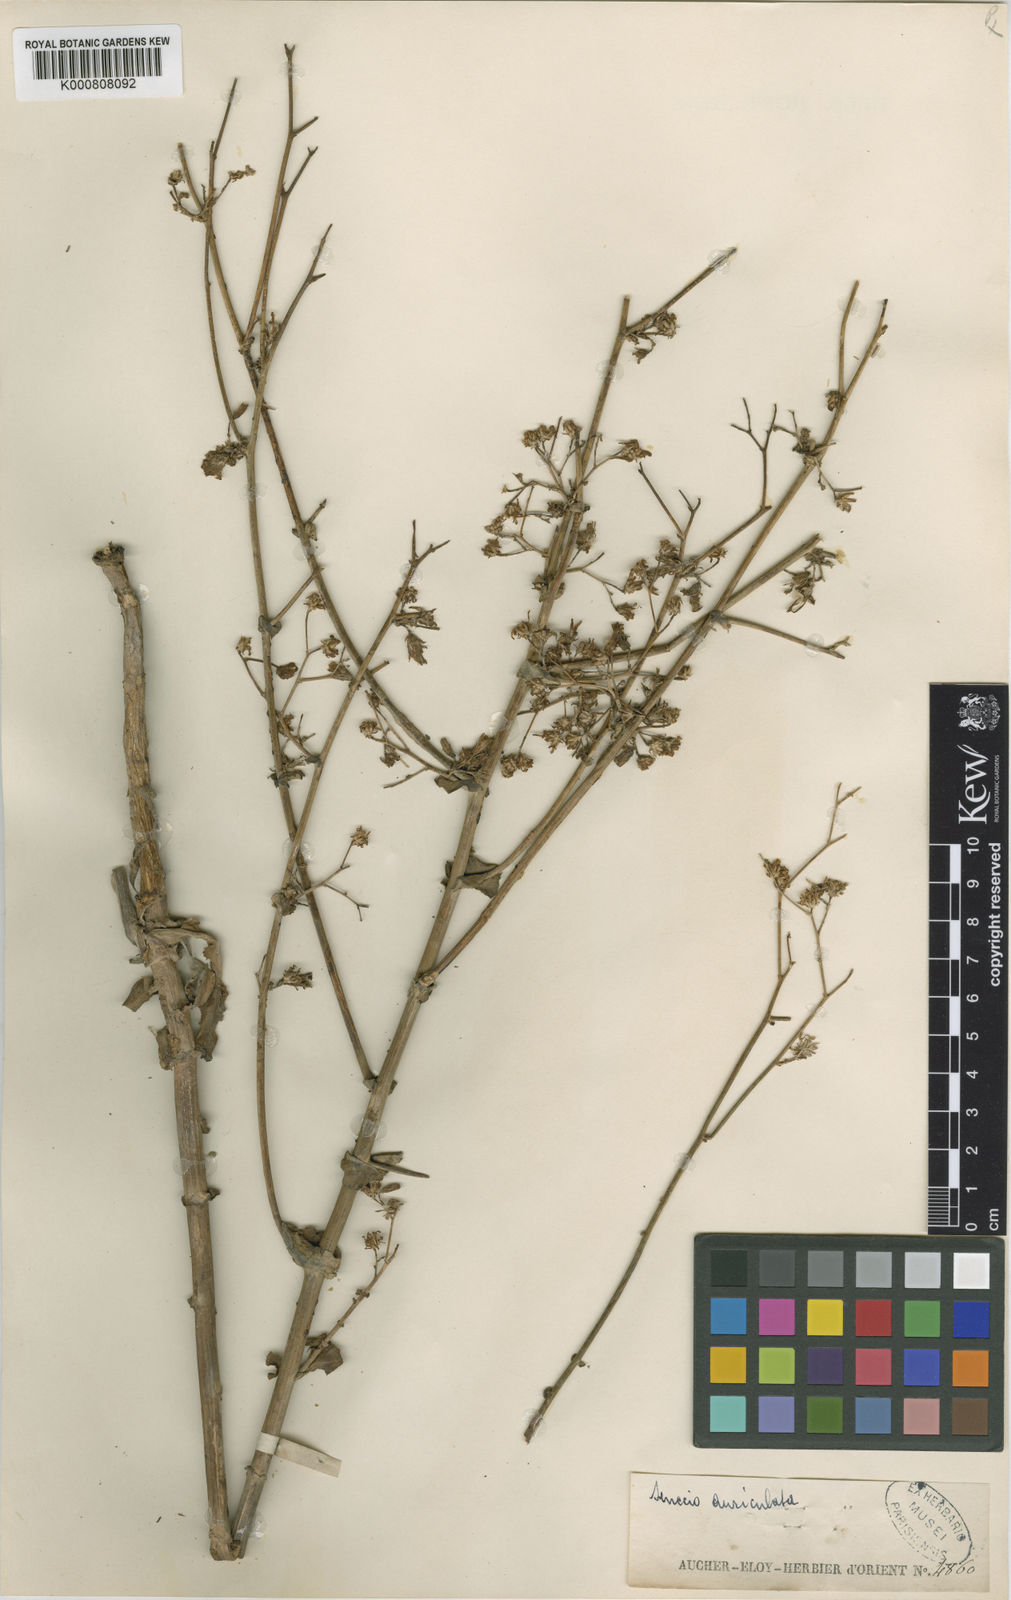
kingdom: Plantae
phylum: Tracheophyta
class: Magnoliopsida
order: Asterales
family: Asteraceae
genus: Lactuca
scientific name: Lactuca brassicifolia
